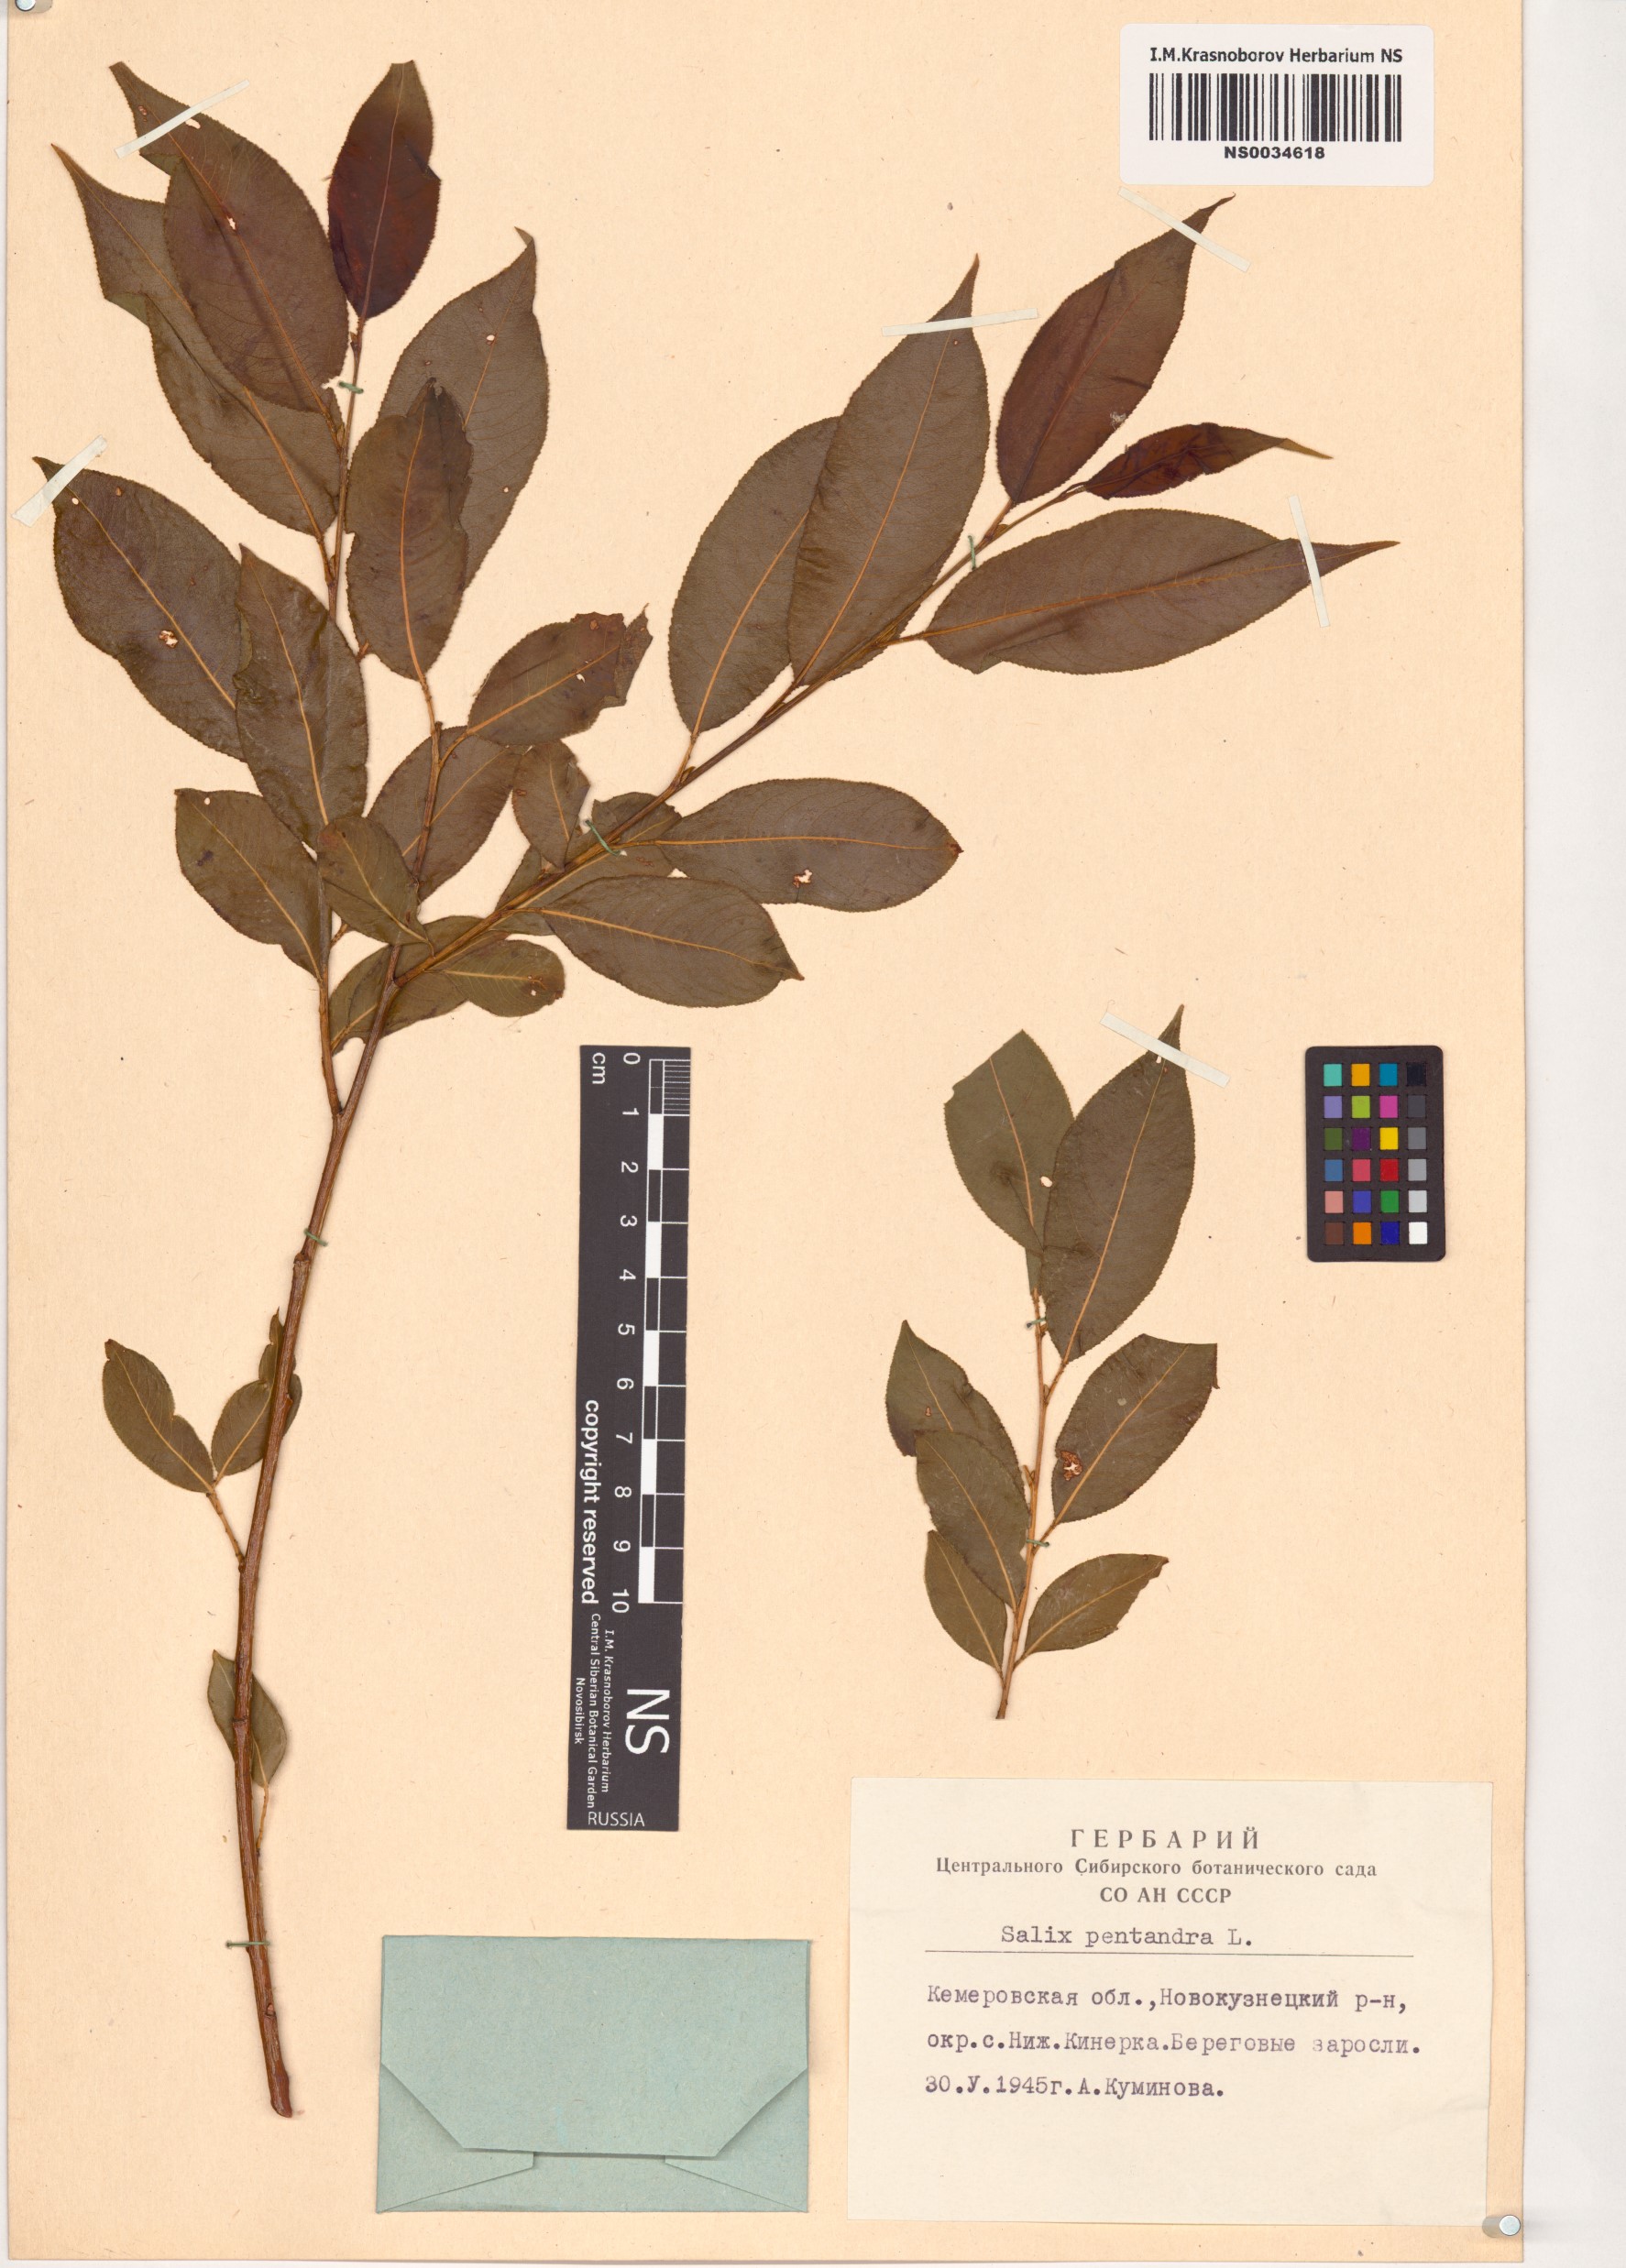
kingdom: Plantae
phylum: Tracheophyta
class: Magnoliopsida
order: Malpighiales
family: Salicaceae
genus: Salix
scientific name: Salix pentandra
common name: Bay willow
